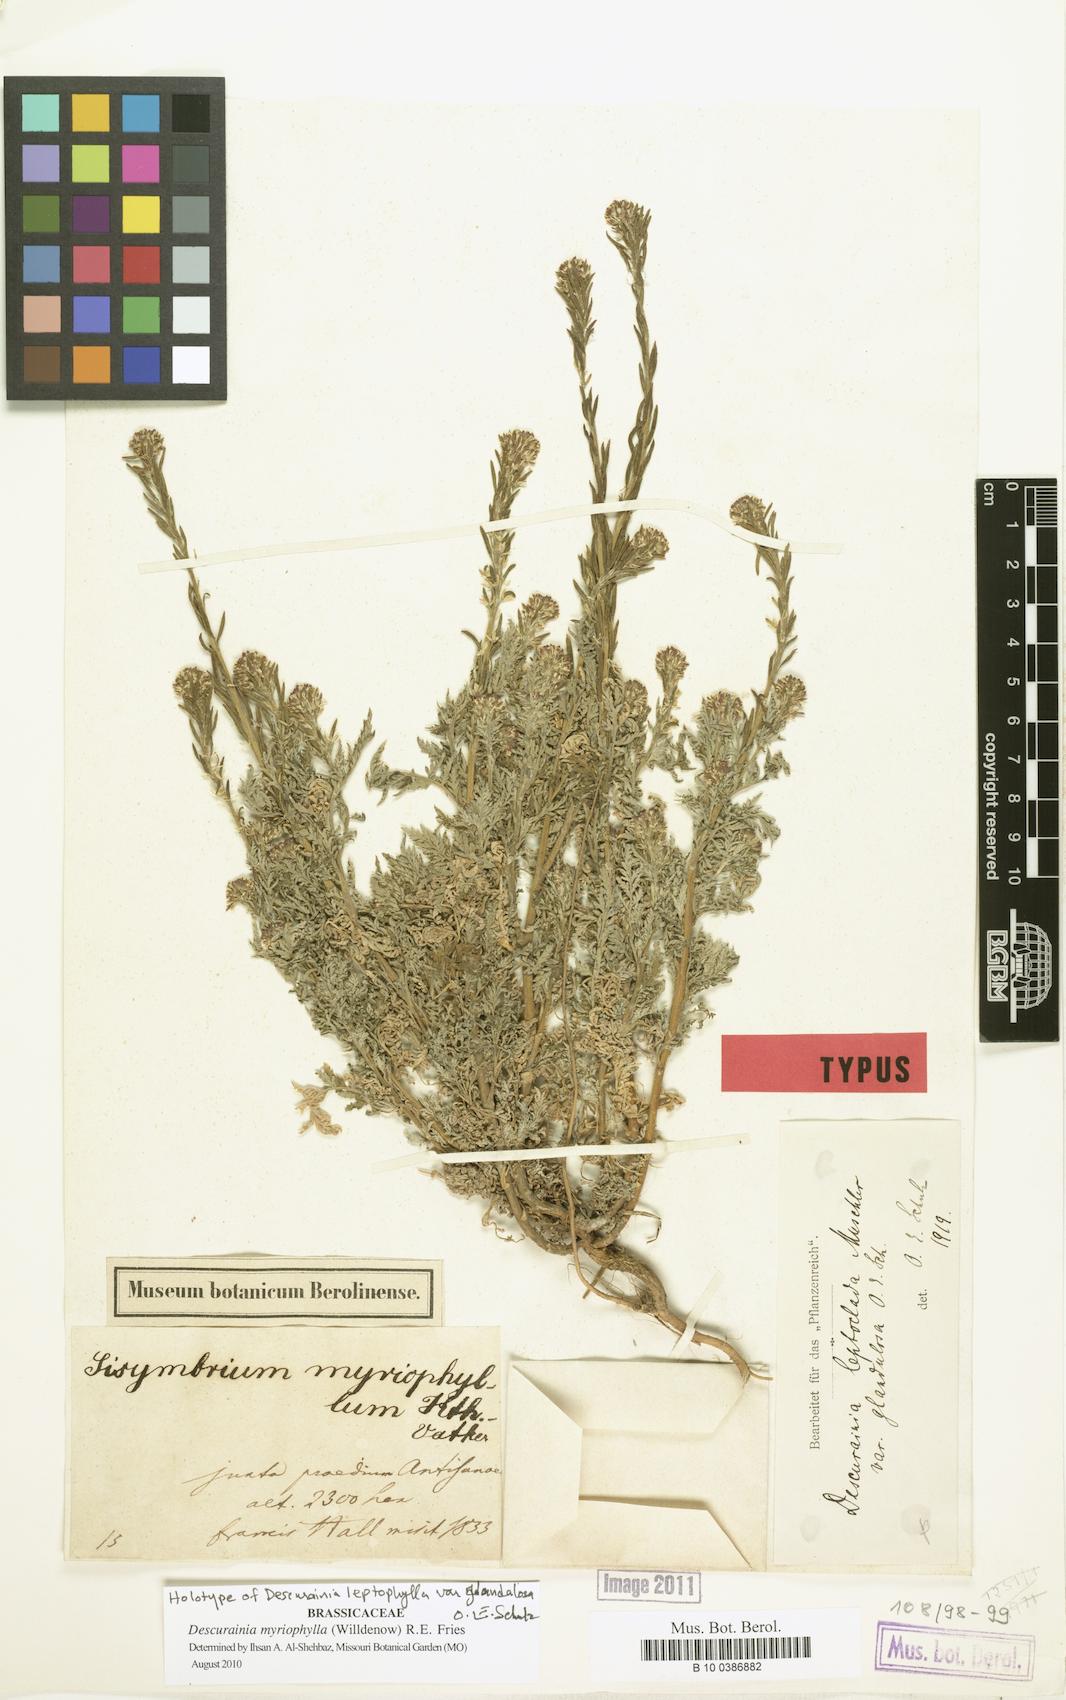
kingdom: Plantae
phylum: Tracheophyta
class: Magnoliopsida
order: Brassicales
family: Brassicaceae
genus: Descurainia
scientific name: Descurainia myriophylla
